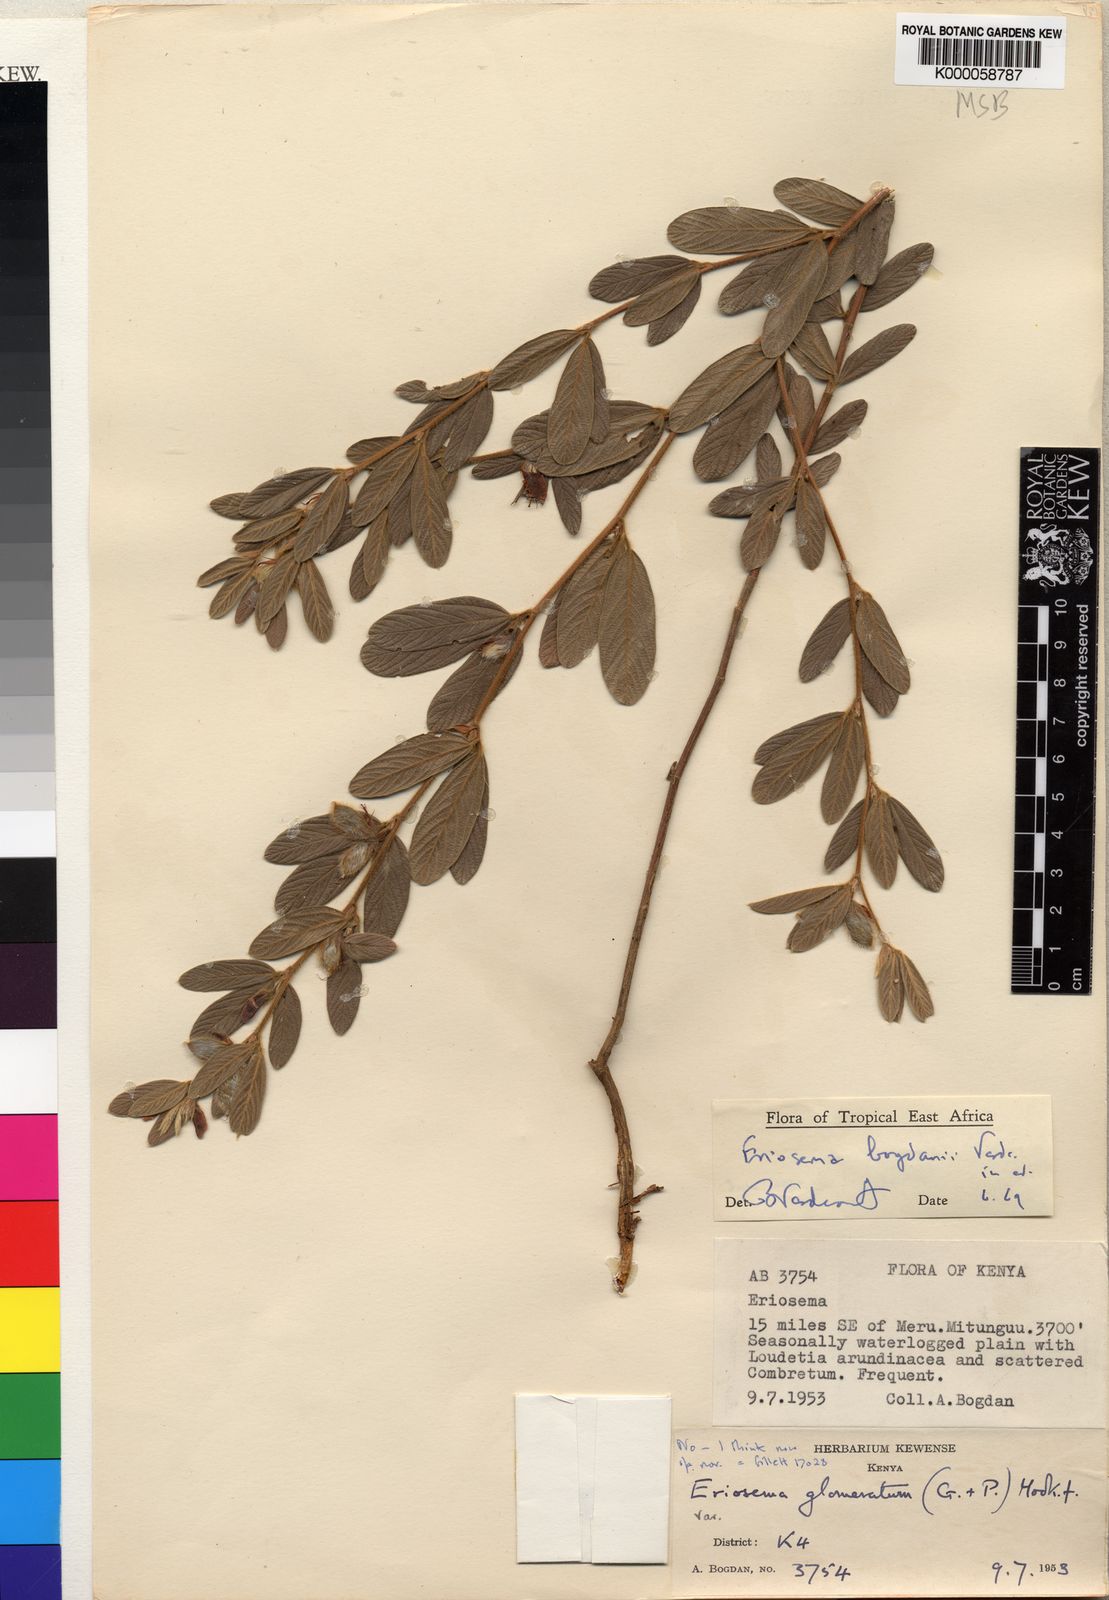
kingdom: Plantae
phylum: Tracheophyta
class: Magnoliopsida
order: Fabales
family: Fabaceae
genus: Eriosema
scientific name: Eriosema bogdanii
